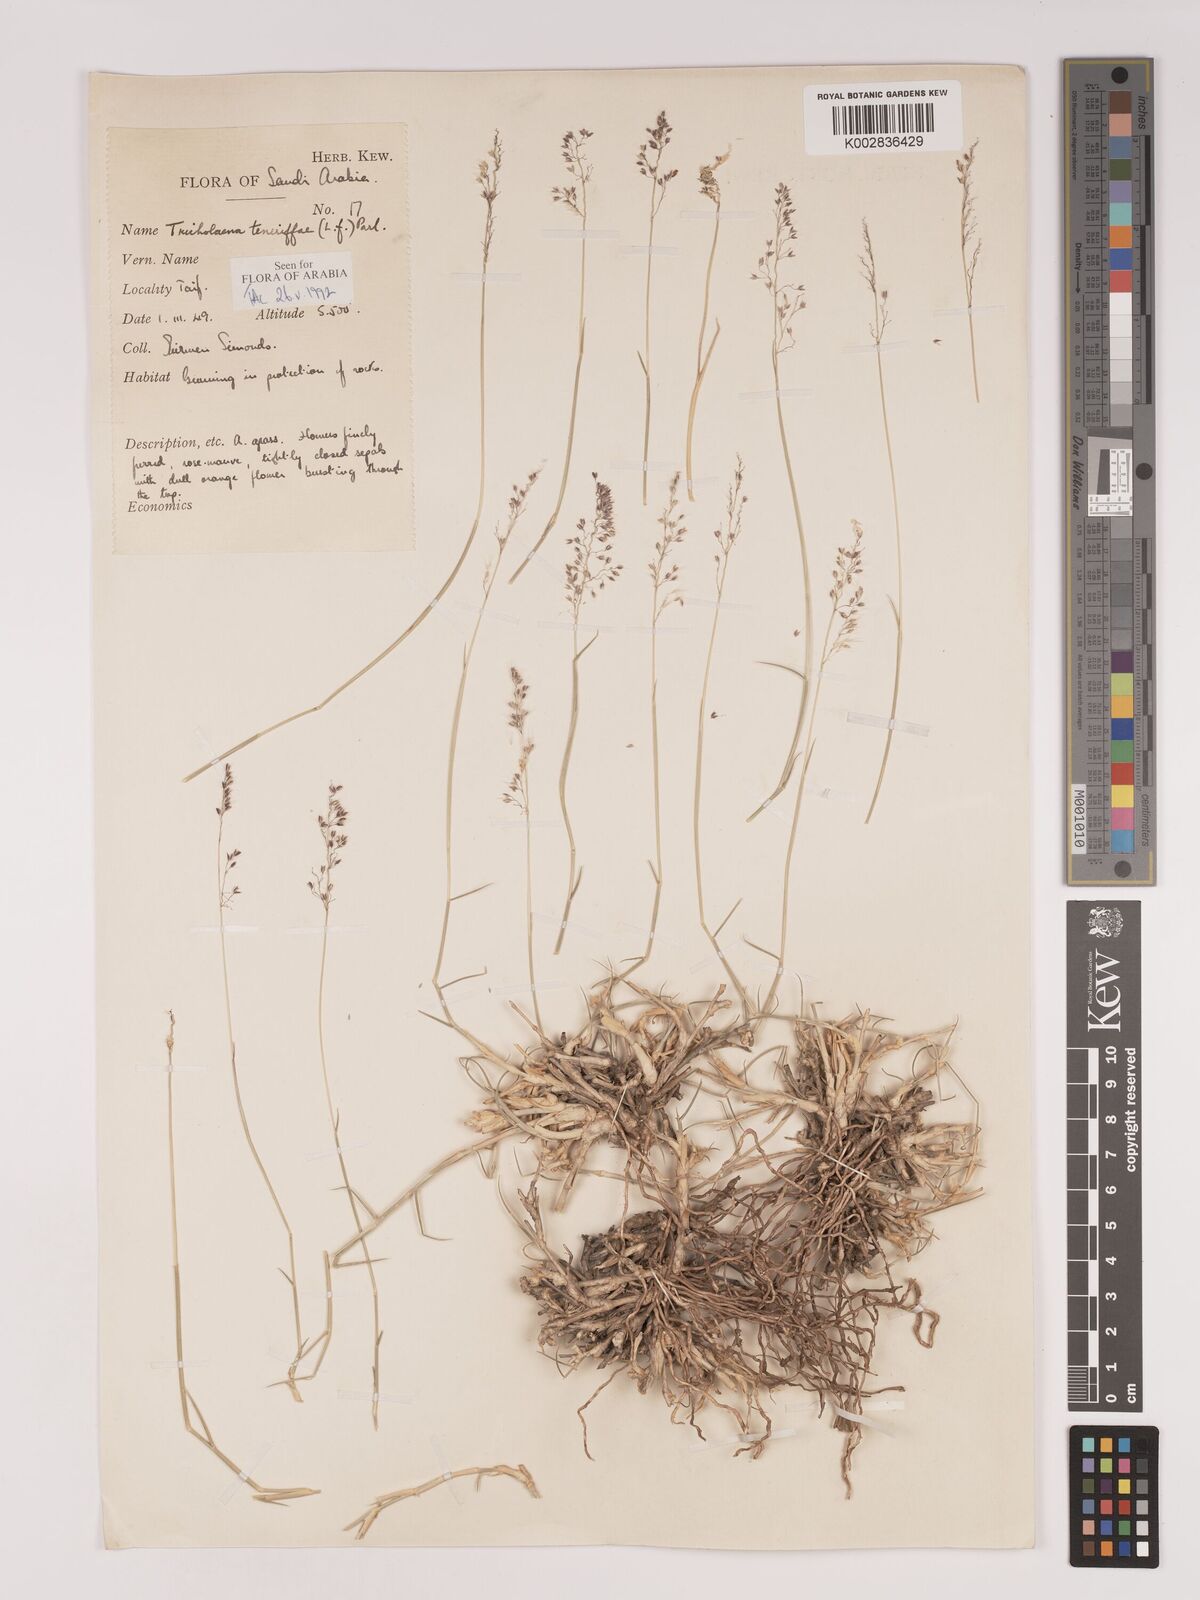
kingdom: Plantae
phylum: Tracheophyta
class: Liliopsida
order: Poales
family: Poaceae
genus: Tricholaena
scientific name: Tricholaena teneriffae
